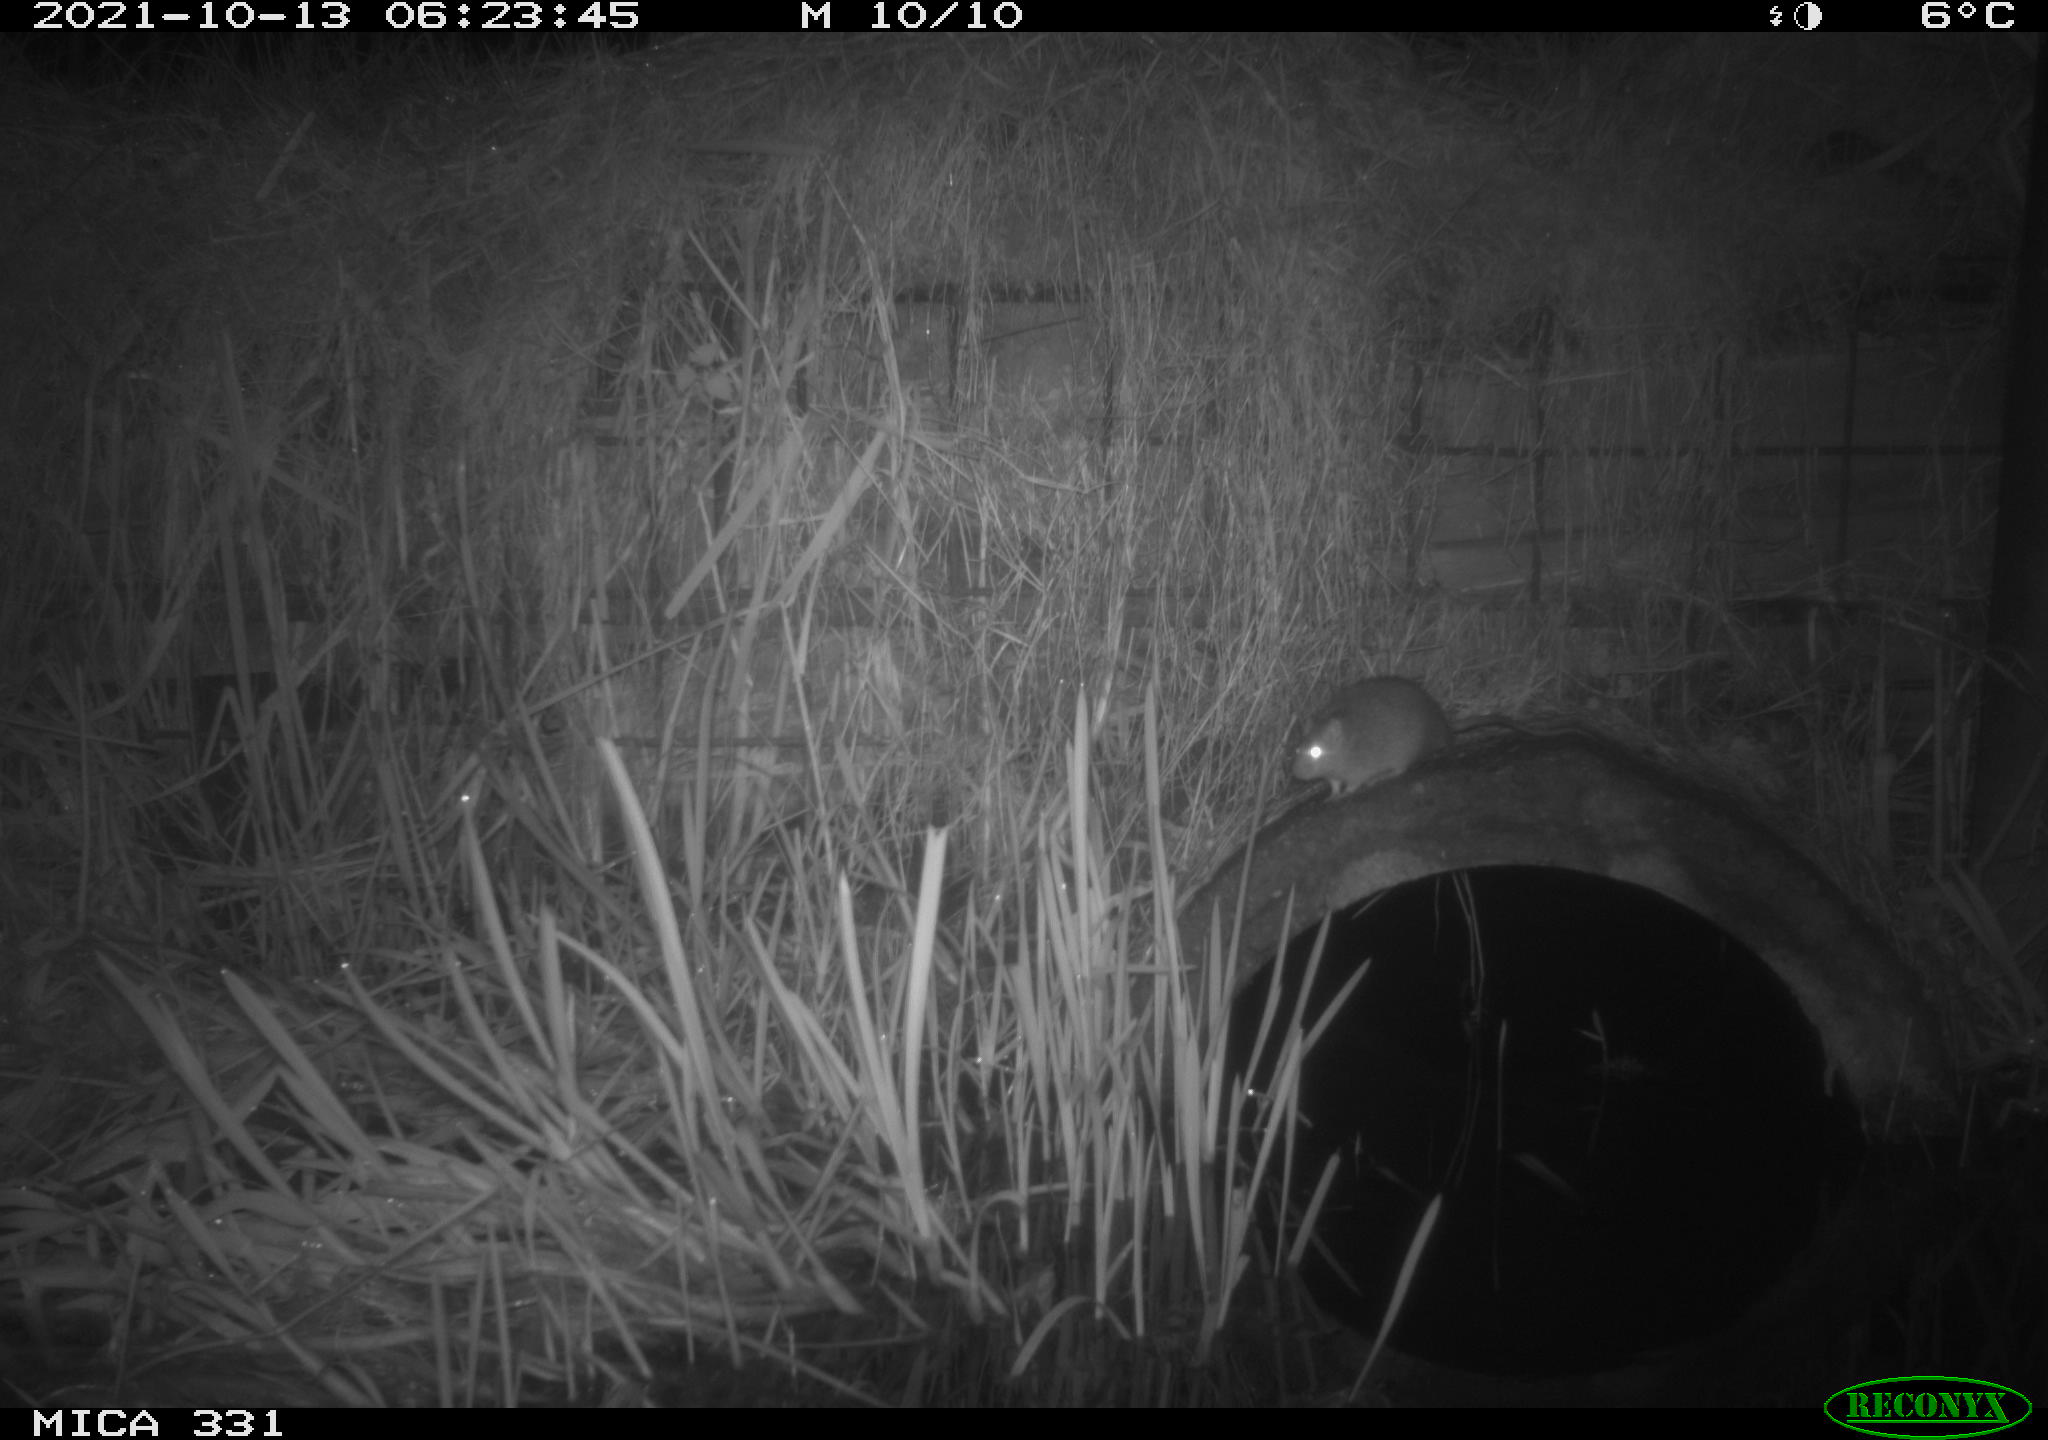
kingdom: Animalia
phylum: Chordata
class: Mammalia
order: Rodentia
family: Muridae
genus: Rattus
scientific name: Rattus norvegicus
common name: Brown rat
